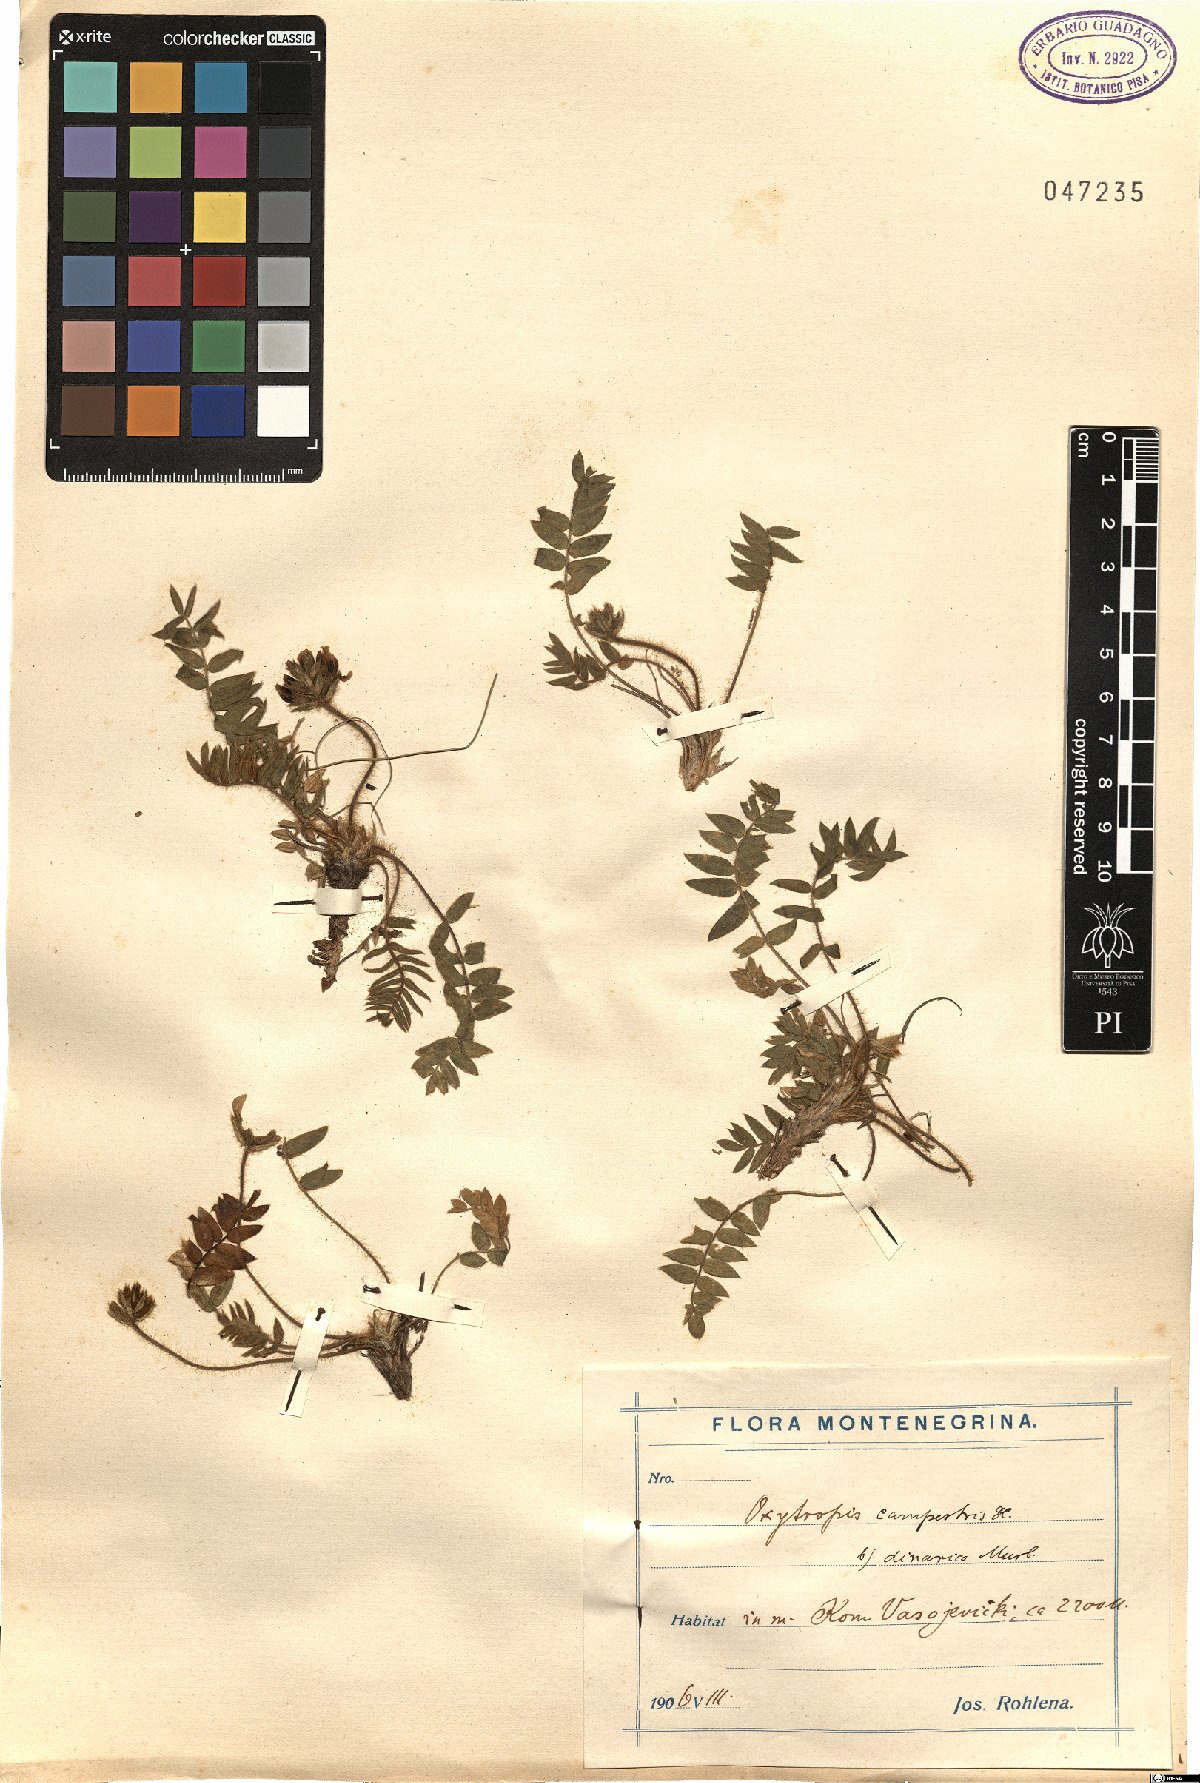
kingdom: Plantae
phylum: Tracheophyta
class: Magnoliopsida
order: Fabales
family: Fabaceae
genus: Oxytropis
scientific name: Oxytropis dinarica
